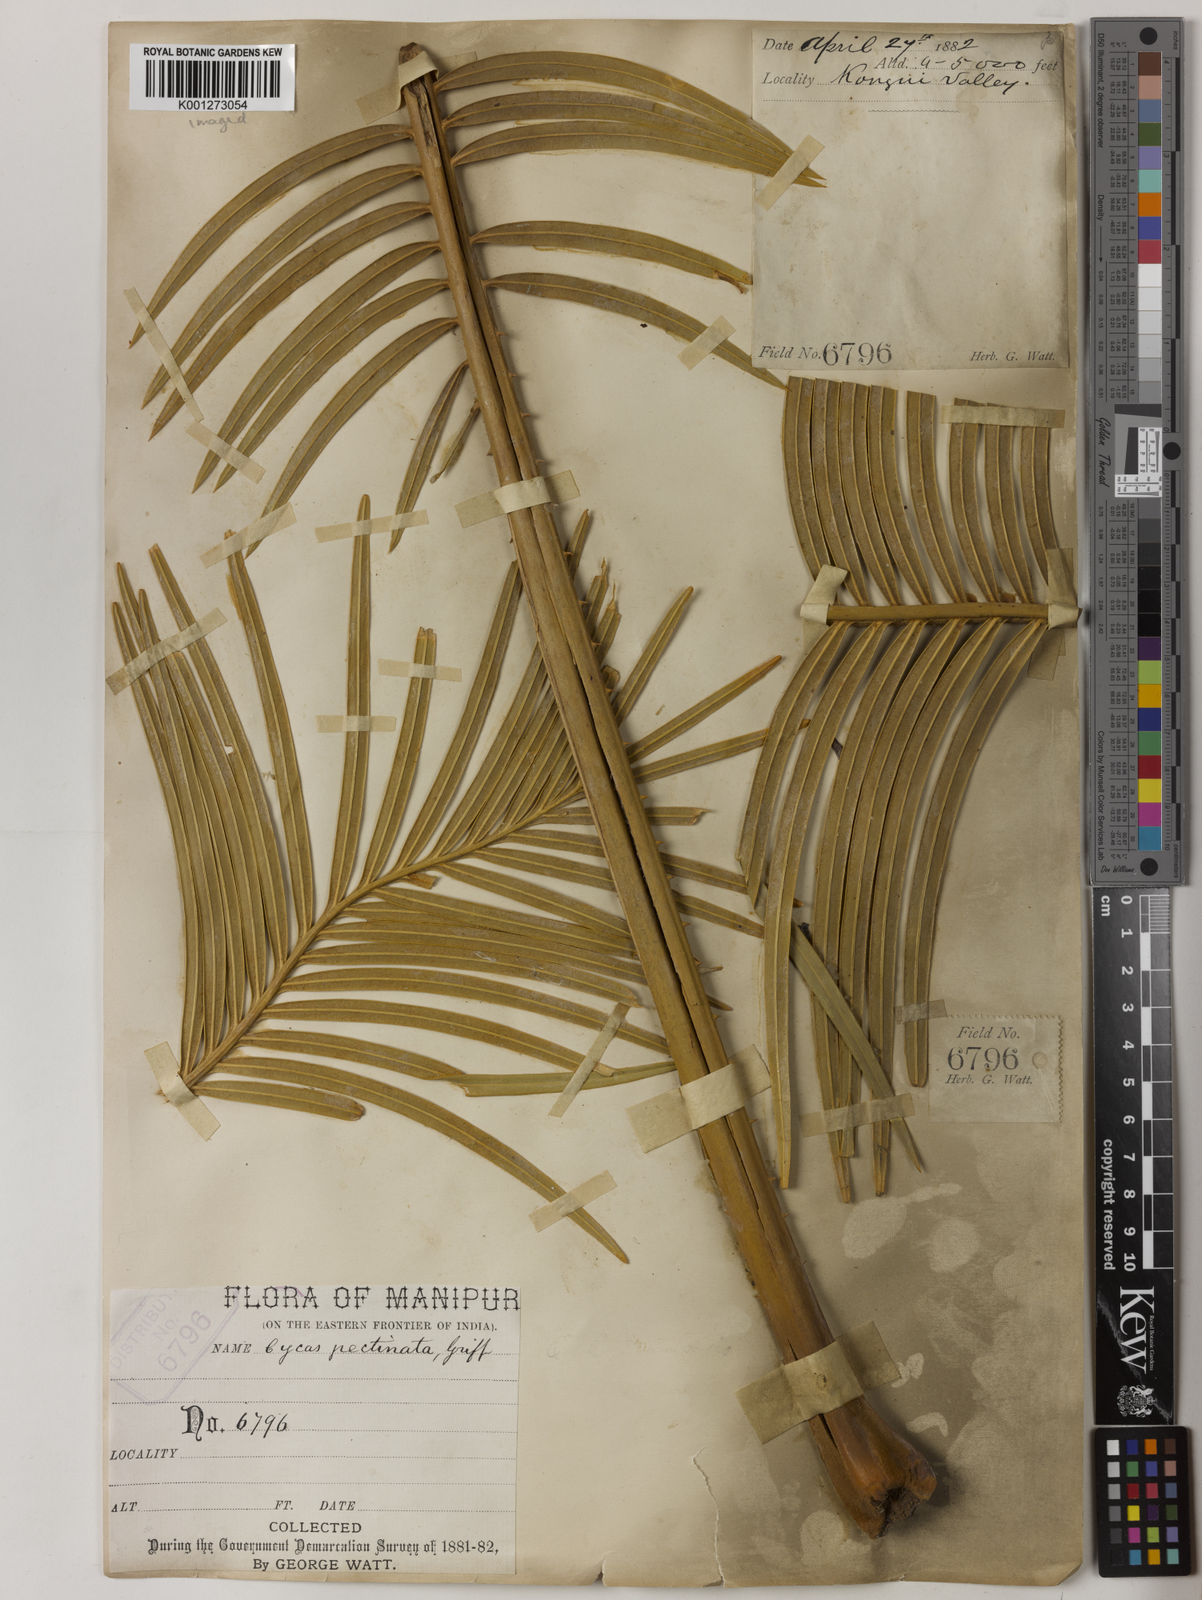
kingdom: Plantae
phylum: Tracheophyta
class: Cycadopsida
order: Cycadales
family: Cycadaceae
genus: Cycas
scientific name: Cycas pectinata
